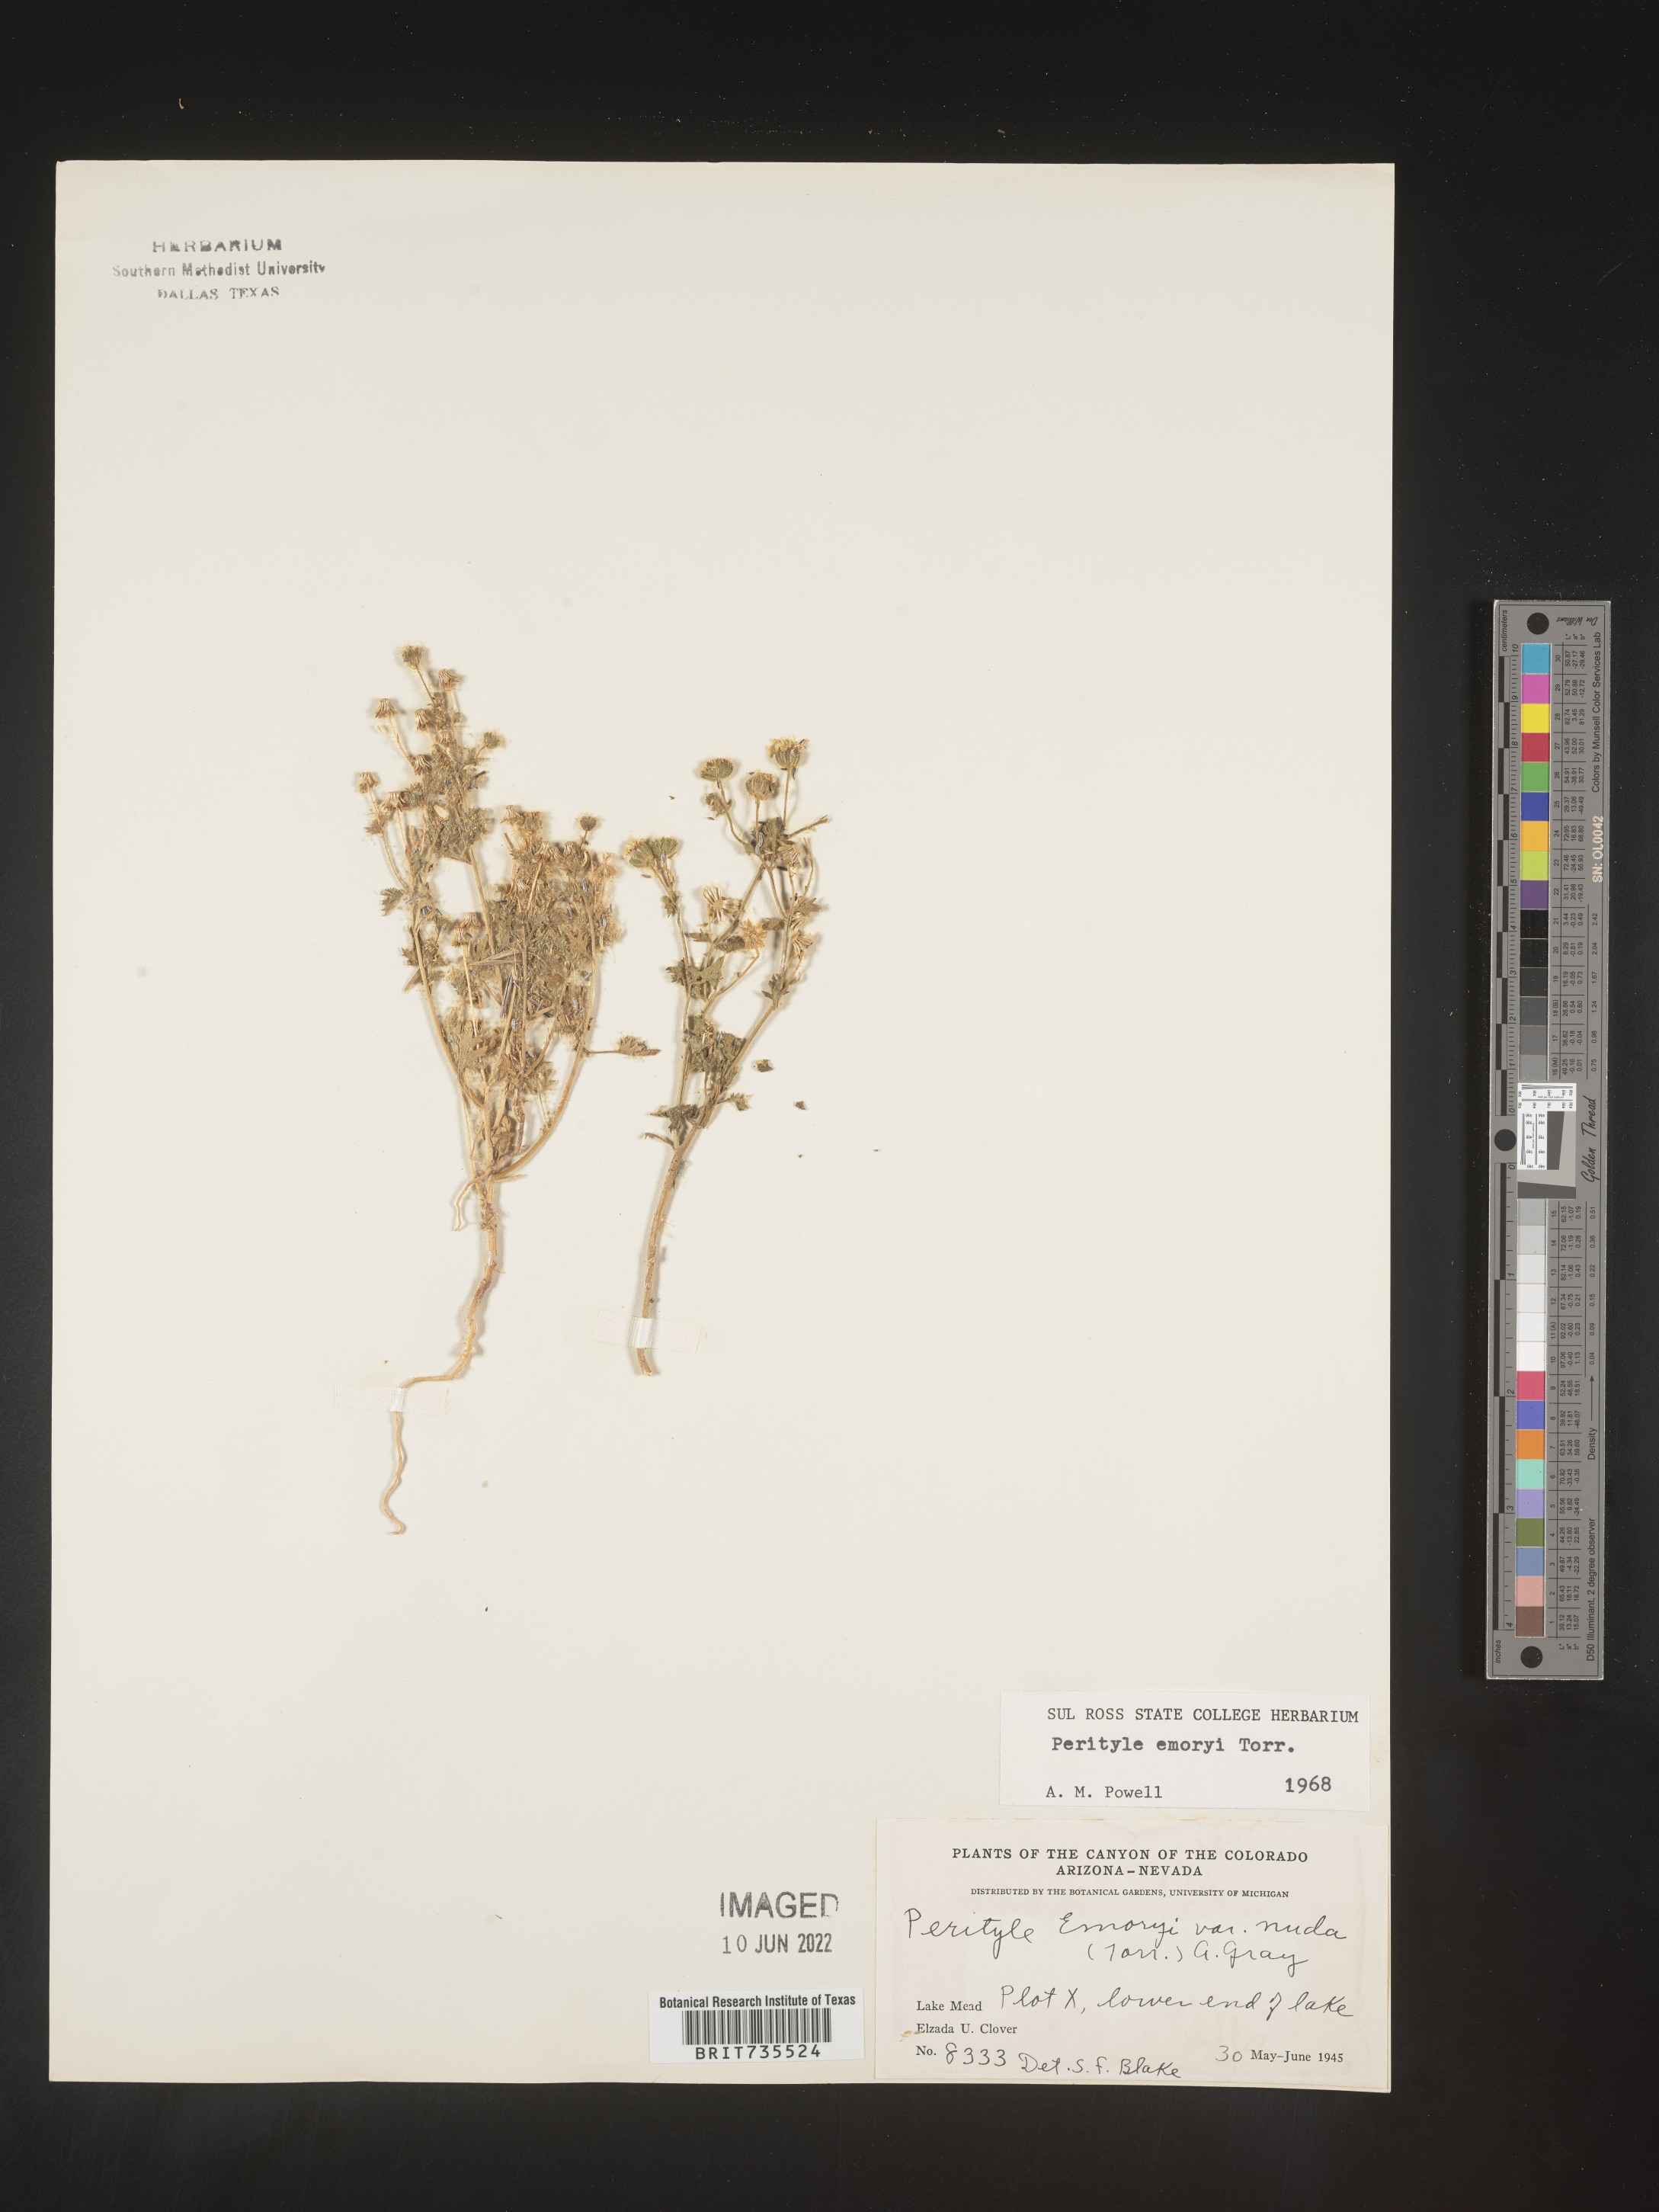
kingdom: Plantae
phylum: Tracheophyta
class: Magnoliopsida
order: Asterales
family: Asteraceae
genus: Perityle
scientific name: Perityle
